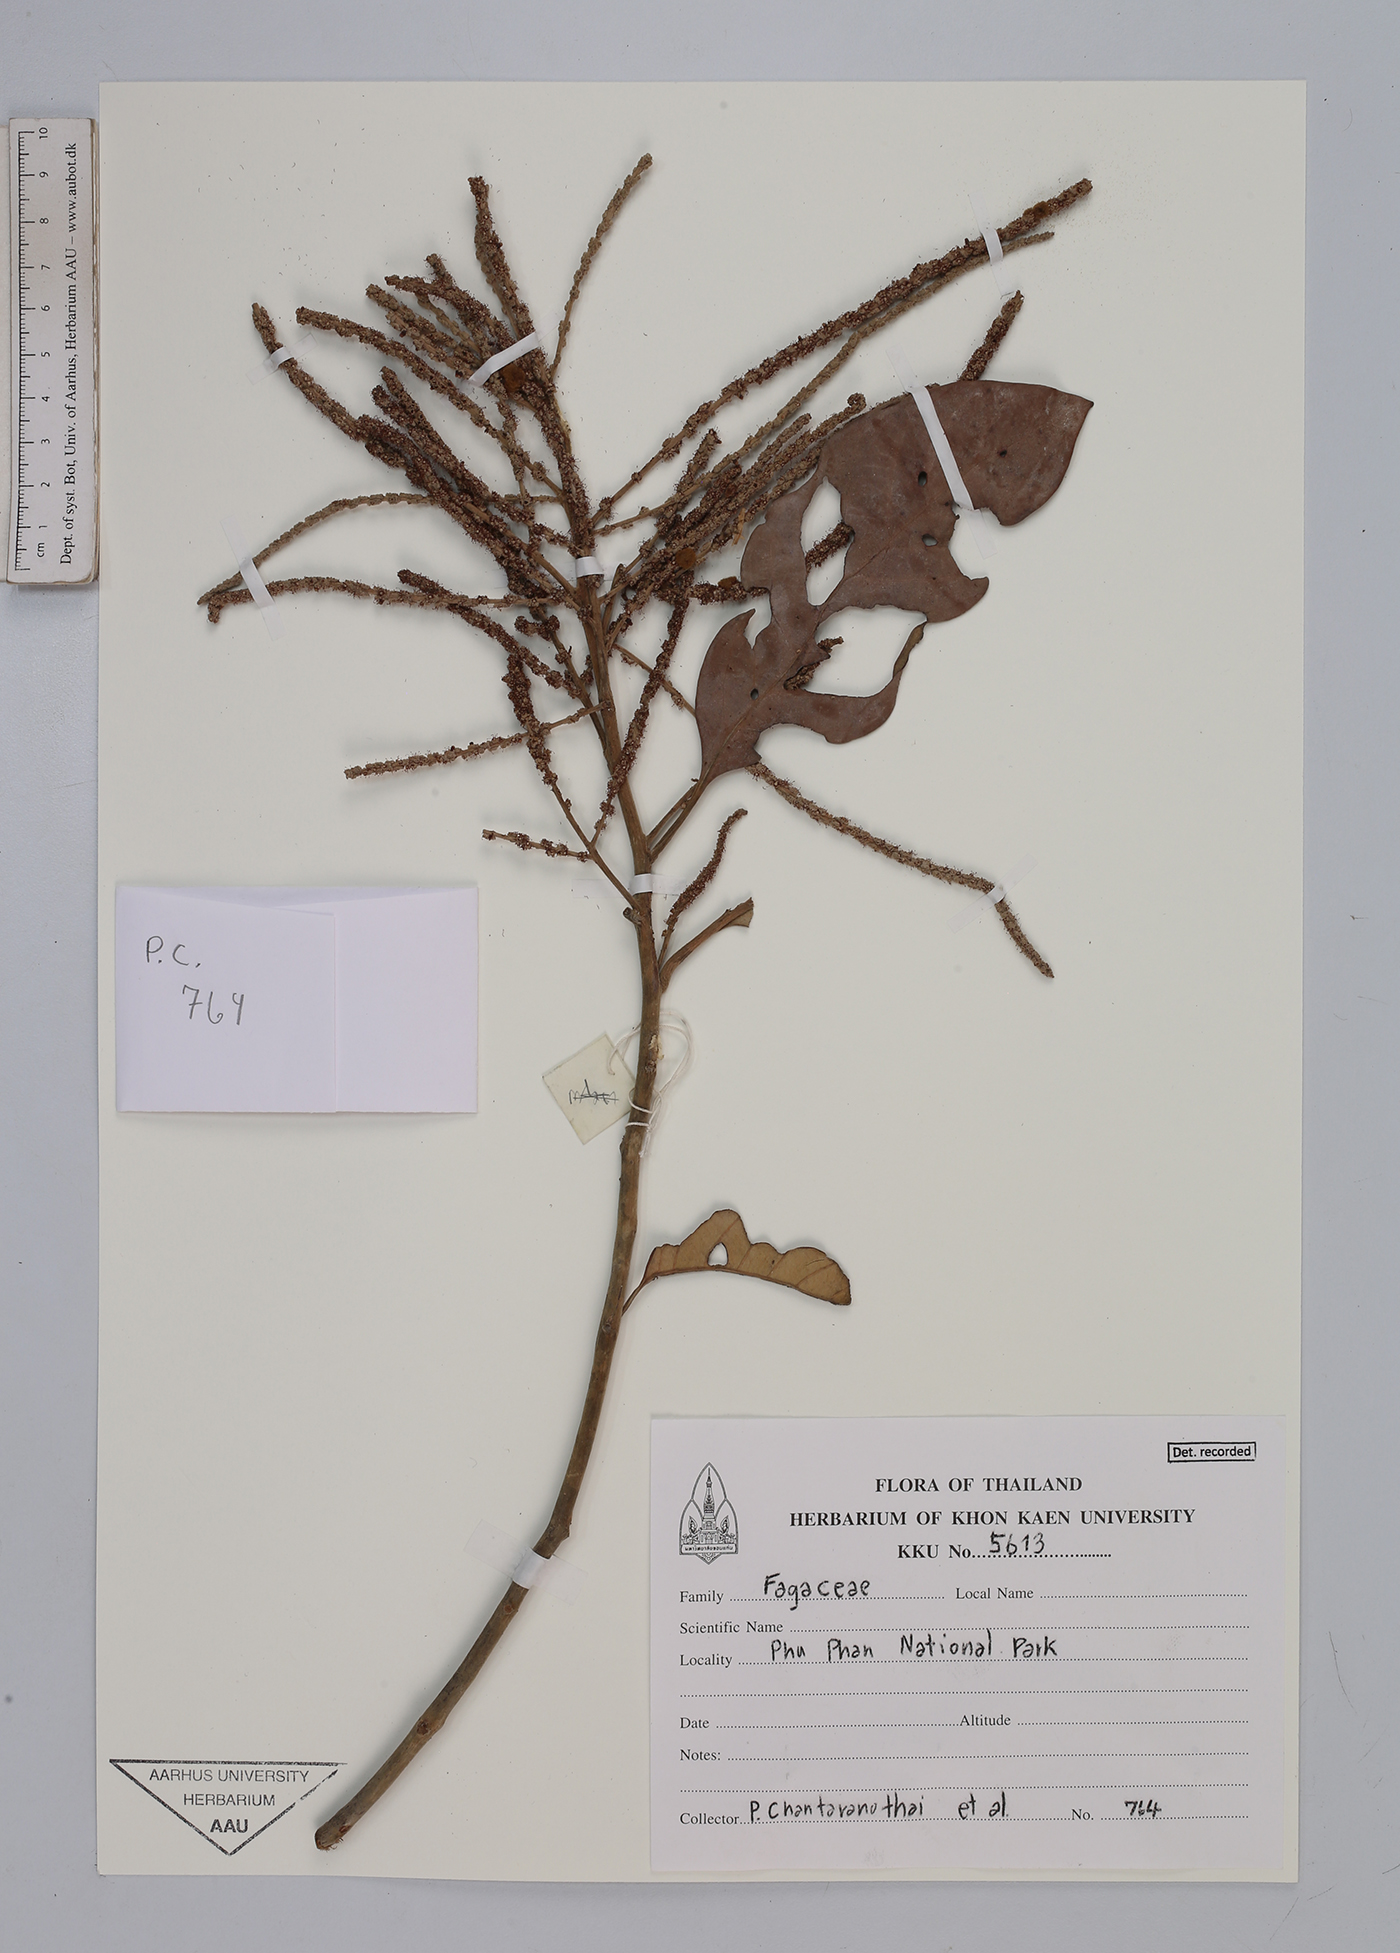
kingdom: Plantae
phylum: Tracheophyta
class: Magnoliopsida
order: Fagales
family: Fagaceae
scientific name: Fagaceae
